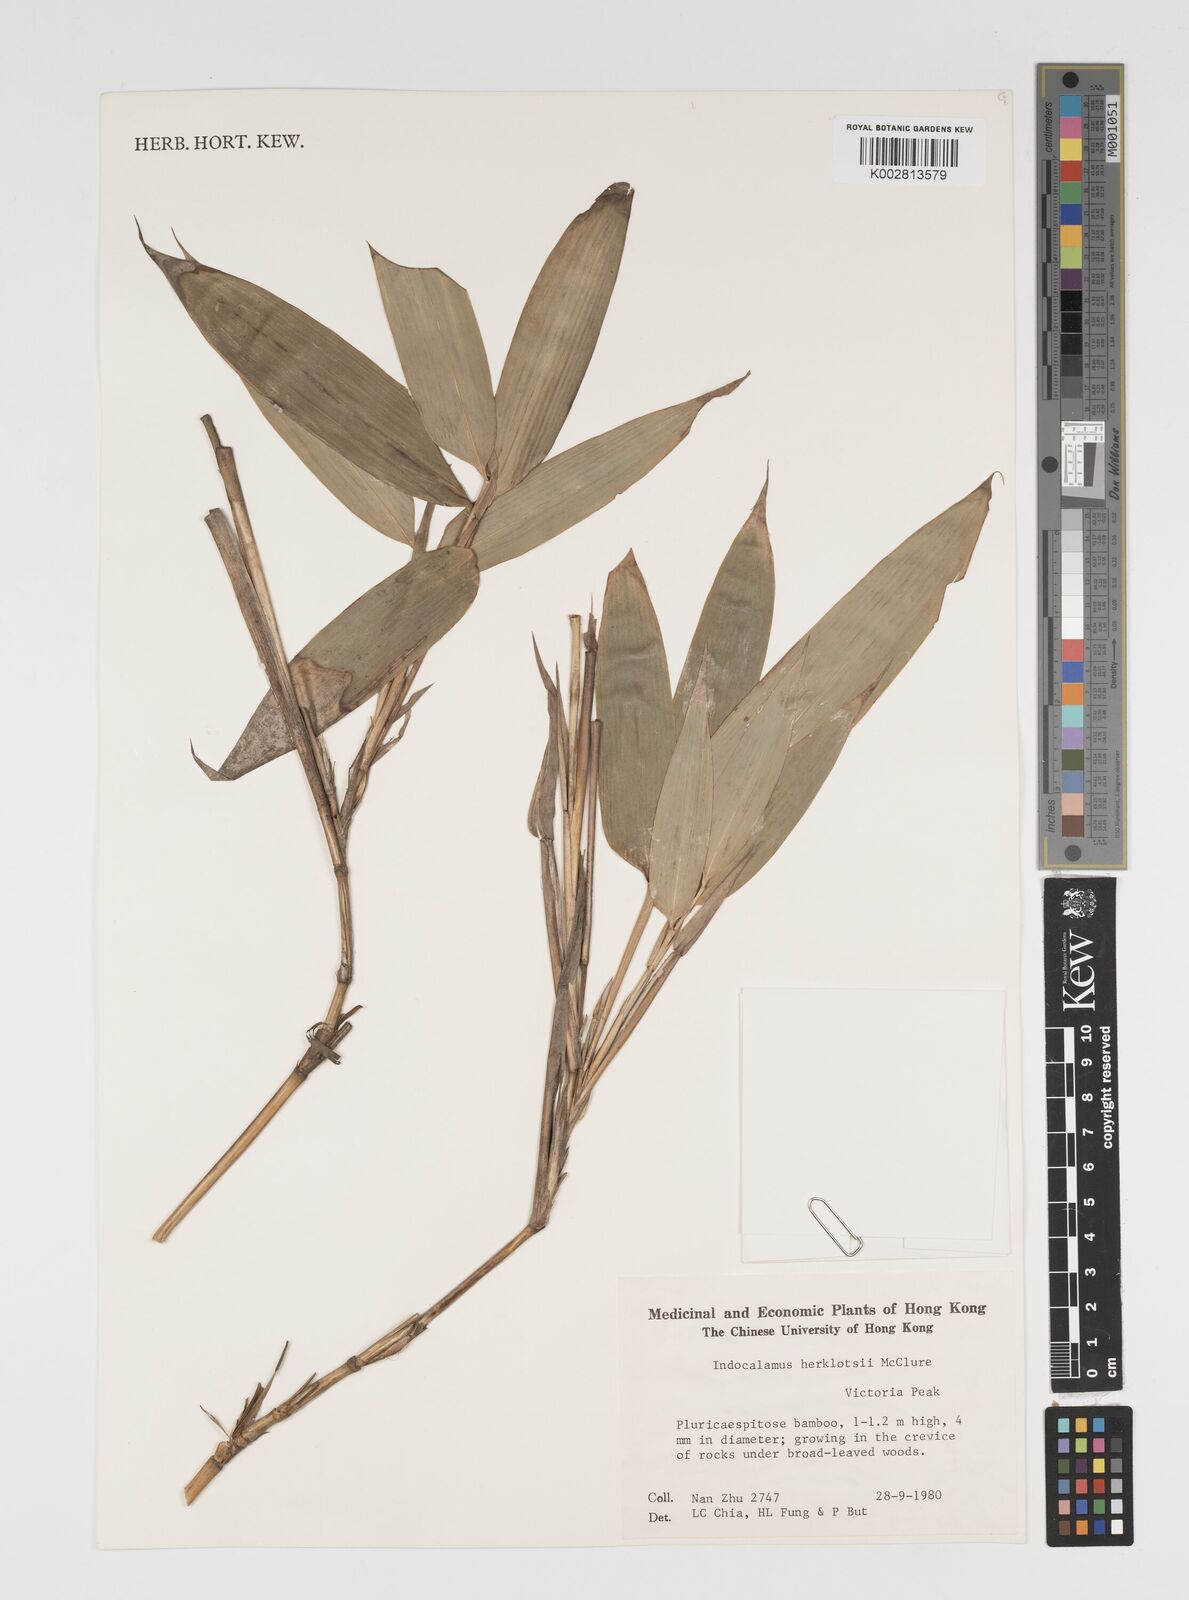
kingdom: Plantae
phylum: Tracheophyta
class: Liliopsida
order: Poales
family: Poaceae
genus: Indocalamus
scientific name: Indocalamus herklotsii
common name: Herklot's cane
